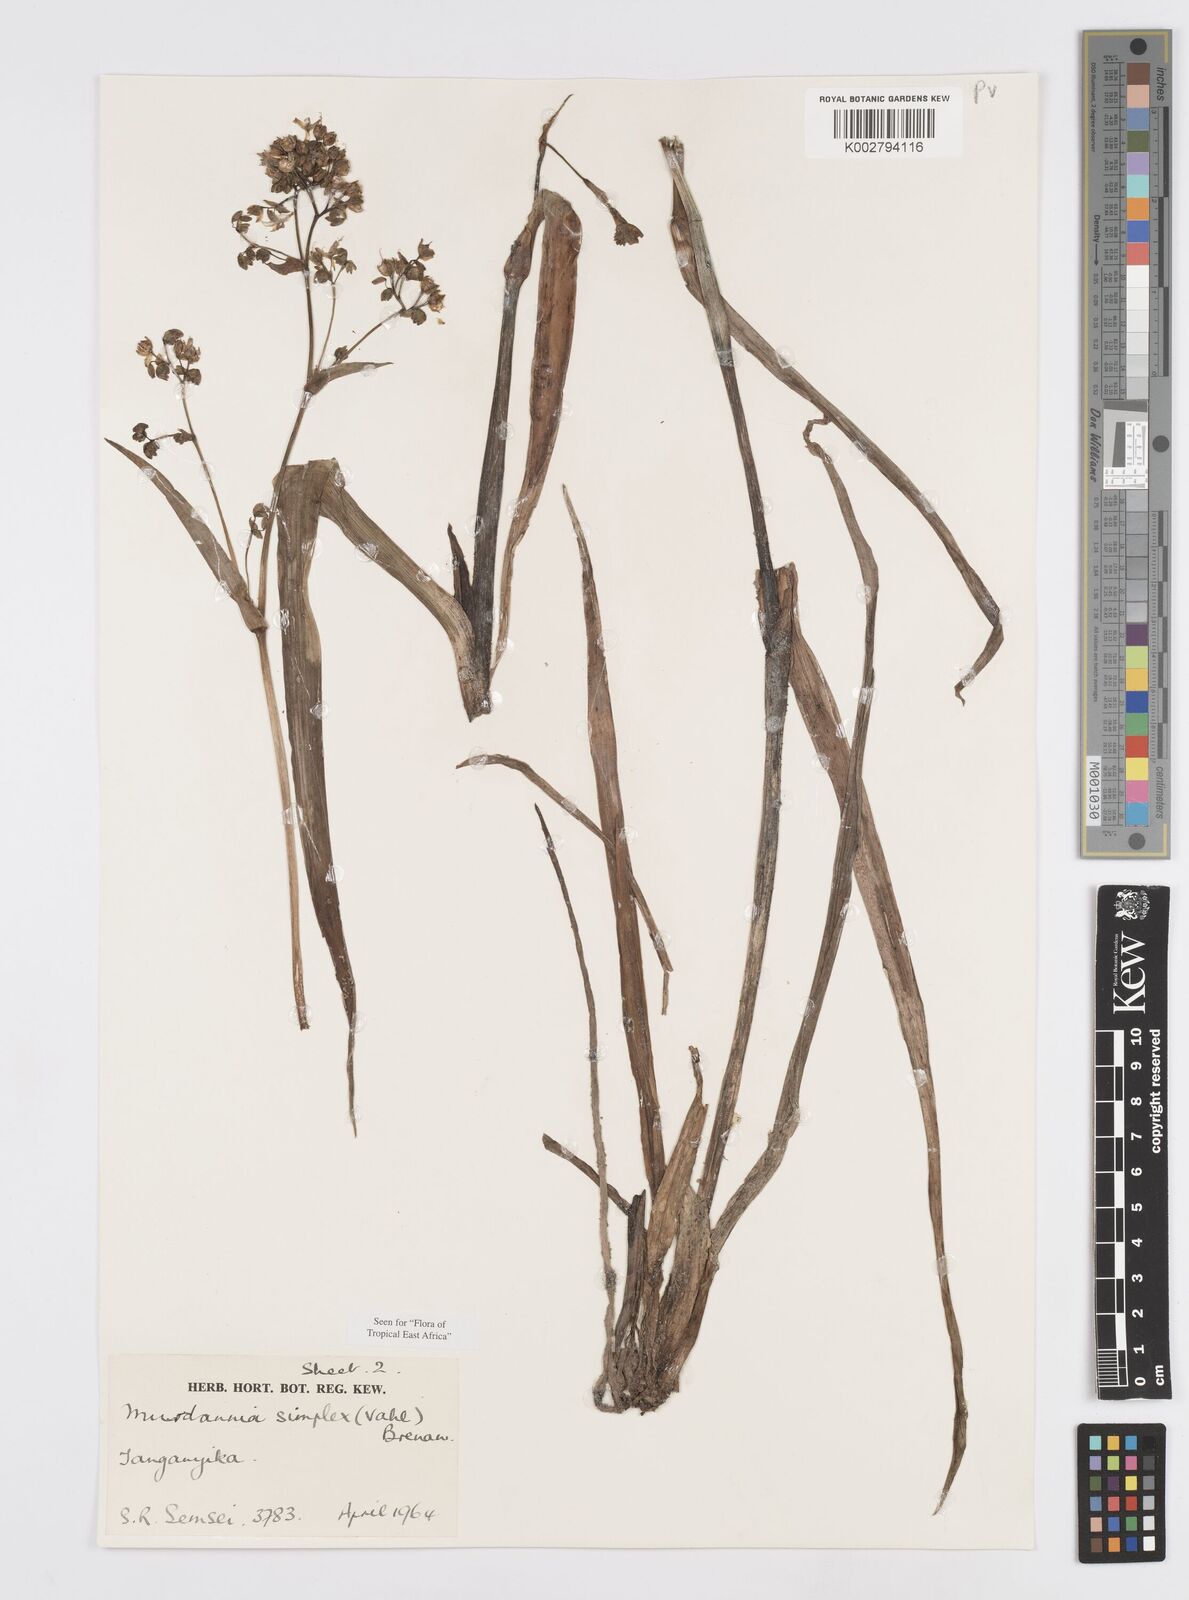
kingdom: Plantae
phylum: Tracheophyta
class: Liliopsida
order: Commelinales
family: Commelinaceae
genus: Murdannia
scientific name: Murdannia simplex
